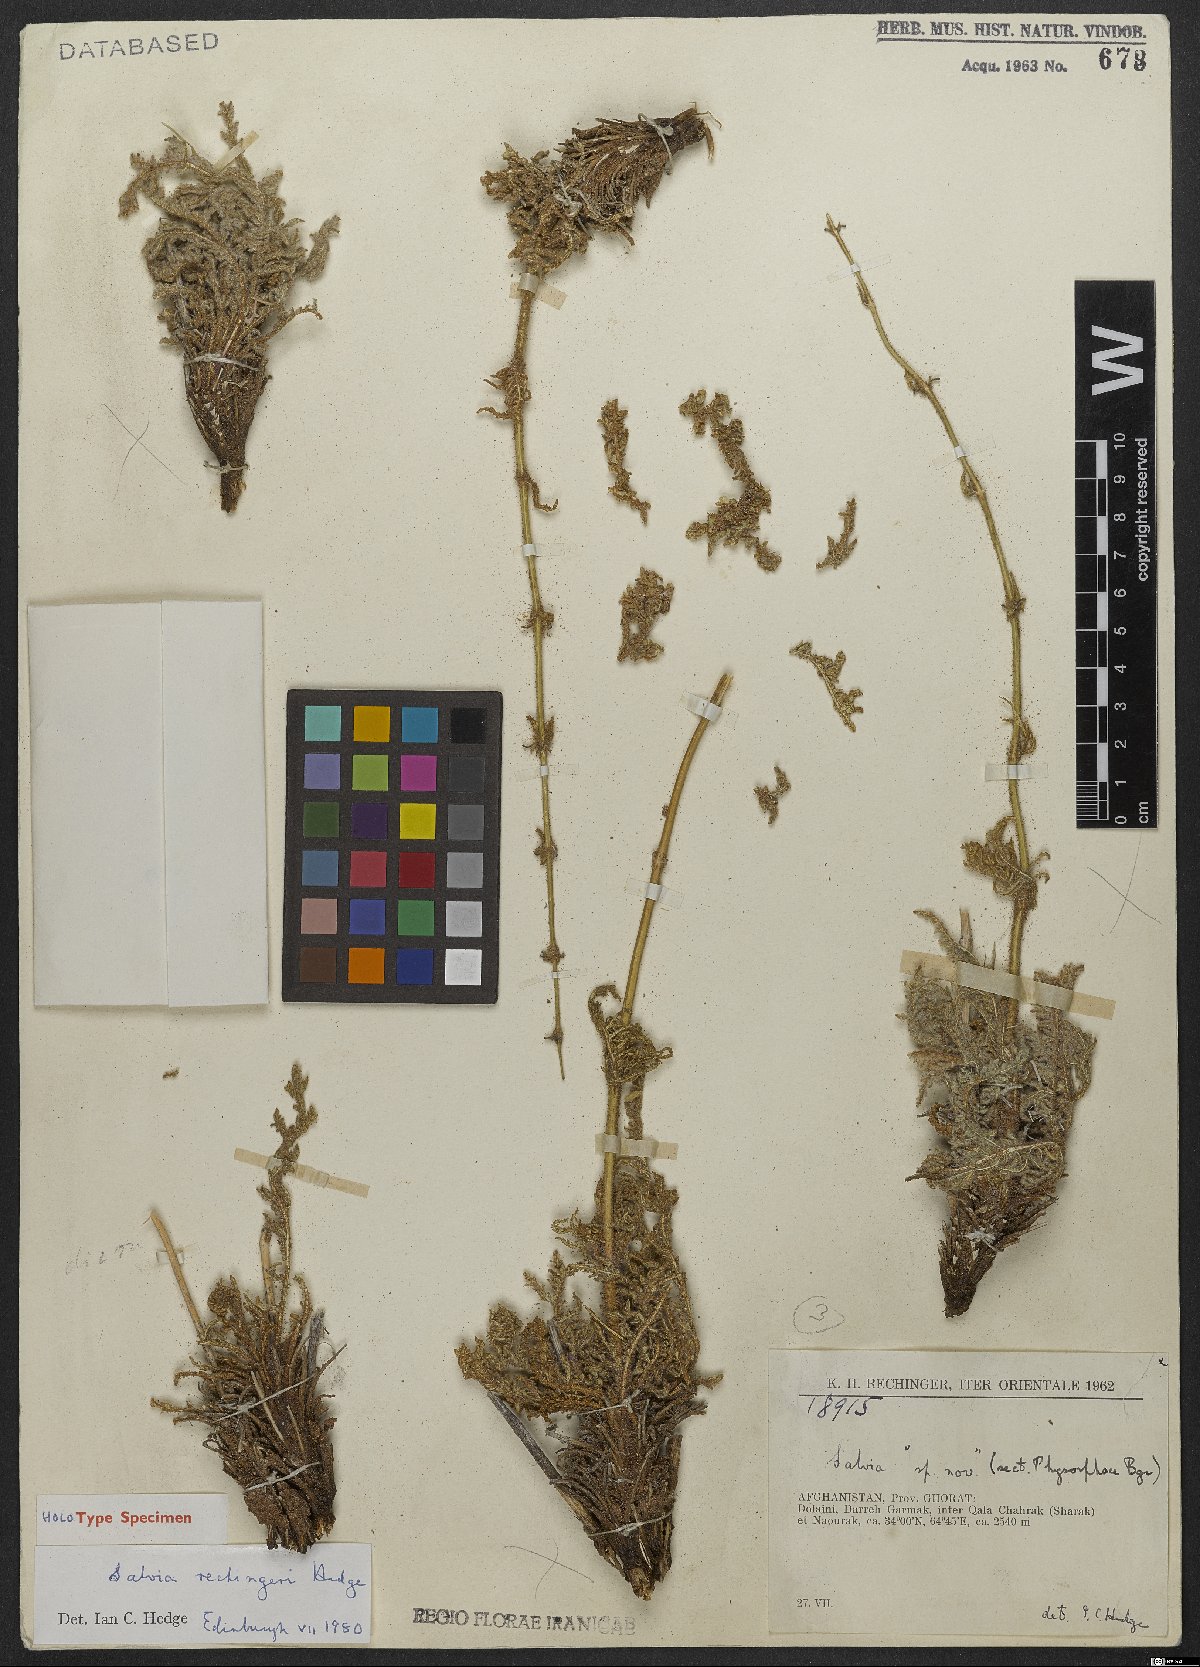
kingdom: Plantae
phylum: Tracheophyta
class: Magnoliopsida
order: Lamiales
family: Lamiaceae
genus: Salvia
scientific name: Salvia rechingeri
